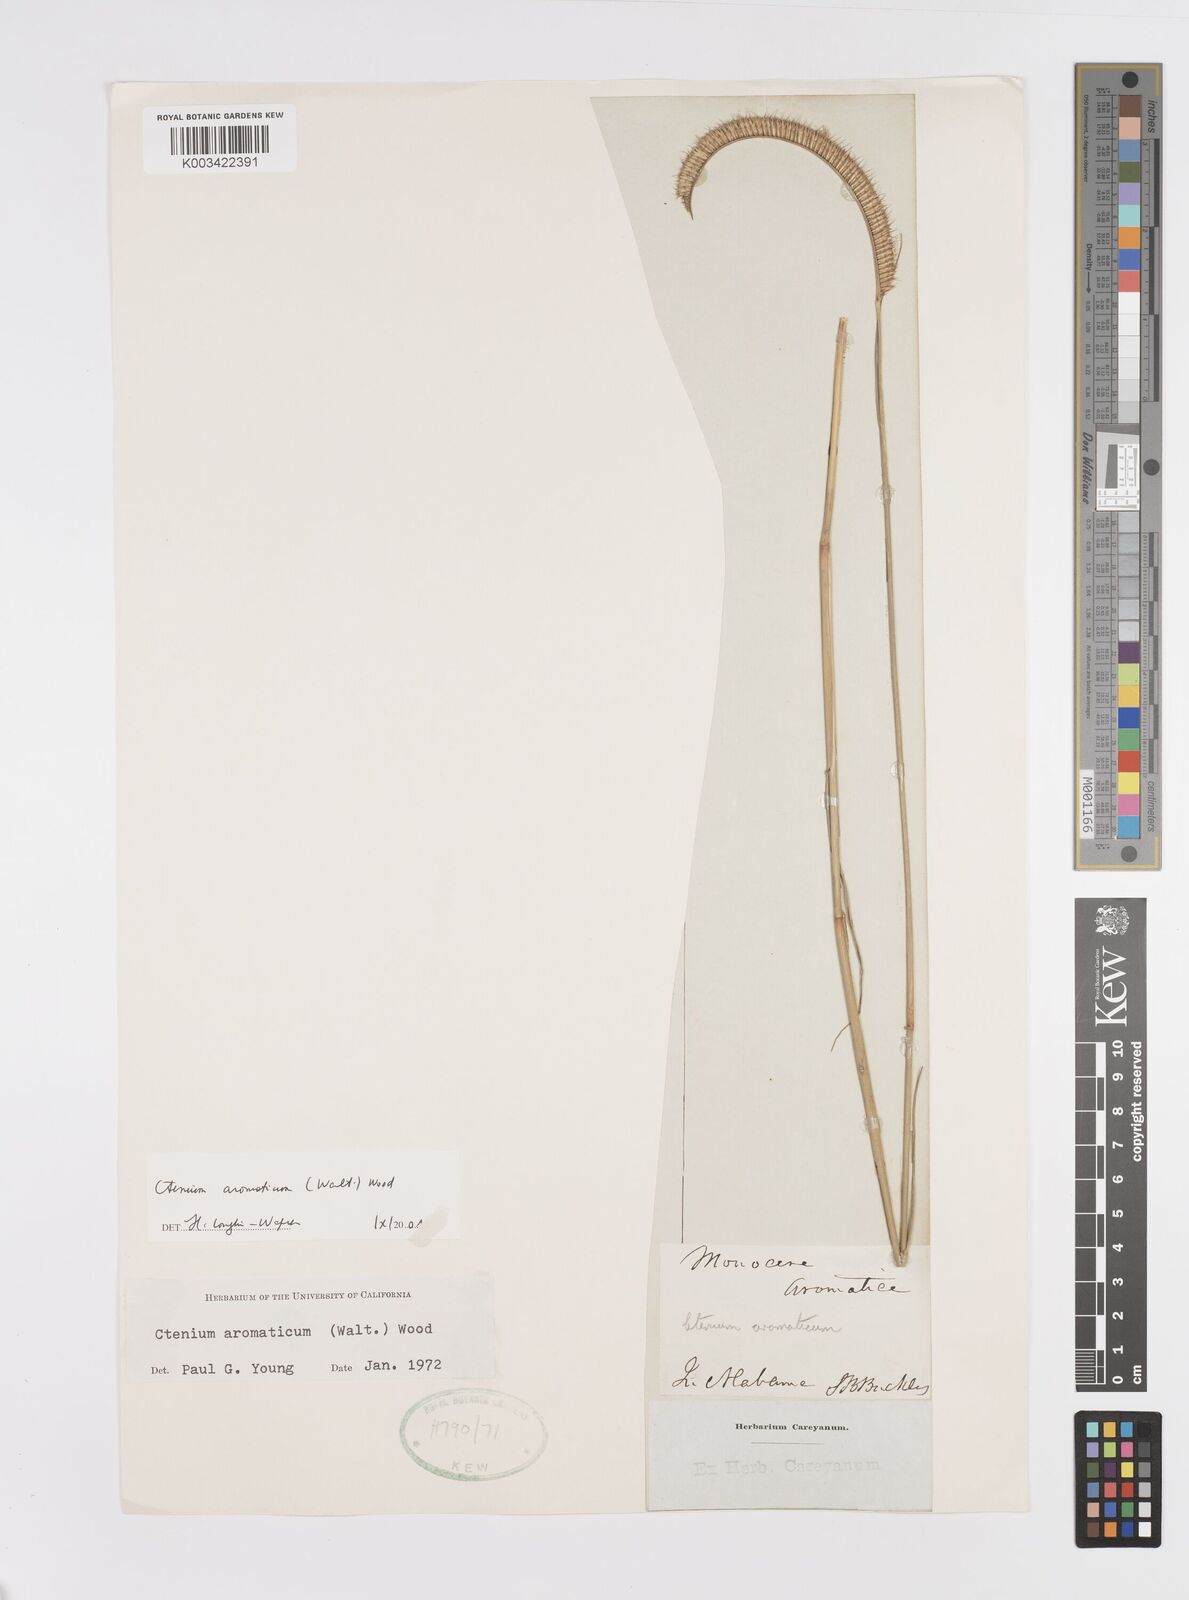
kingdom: Plantae
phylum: Tracheophyta
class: Liliopsida
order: Poales
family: Poaceae
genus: Ctenium
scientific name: Ctenium aromaticum
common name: Toothache grass
